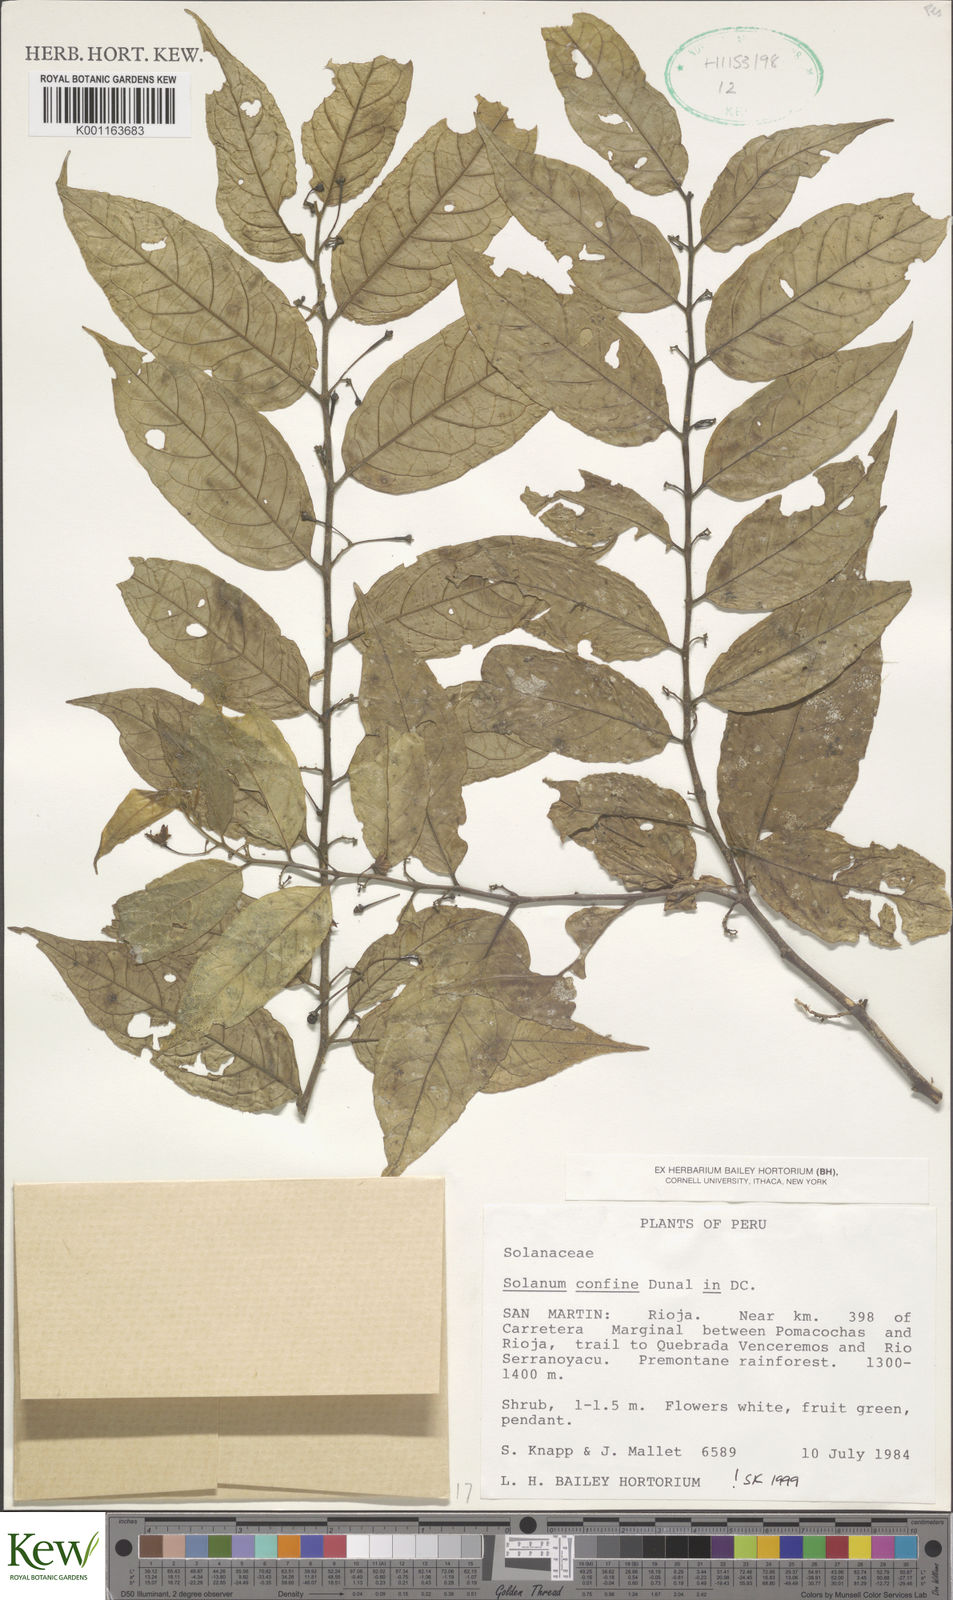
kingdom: Plantae
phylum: Tracheophyta
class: Magnoliopsida
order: Solanales
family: Solanaceae
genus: Solanum
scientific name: Solanum confine
